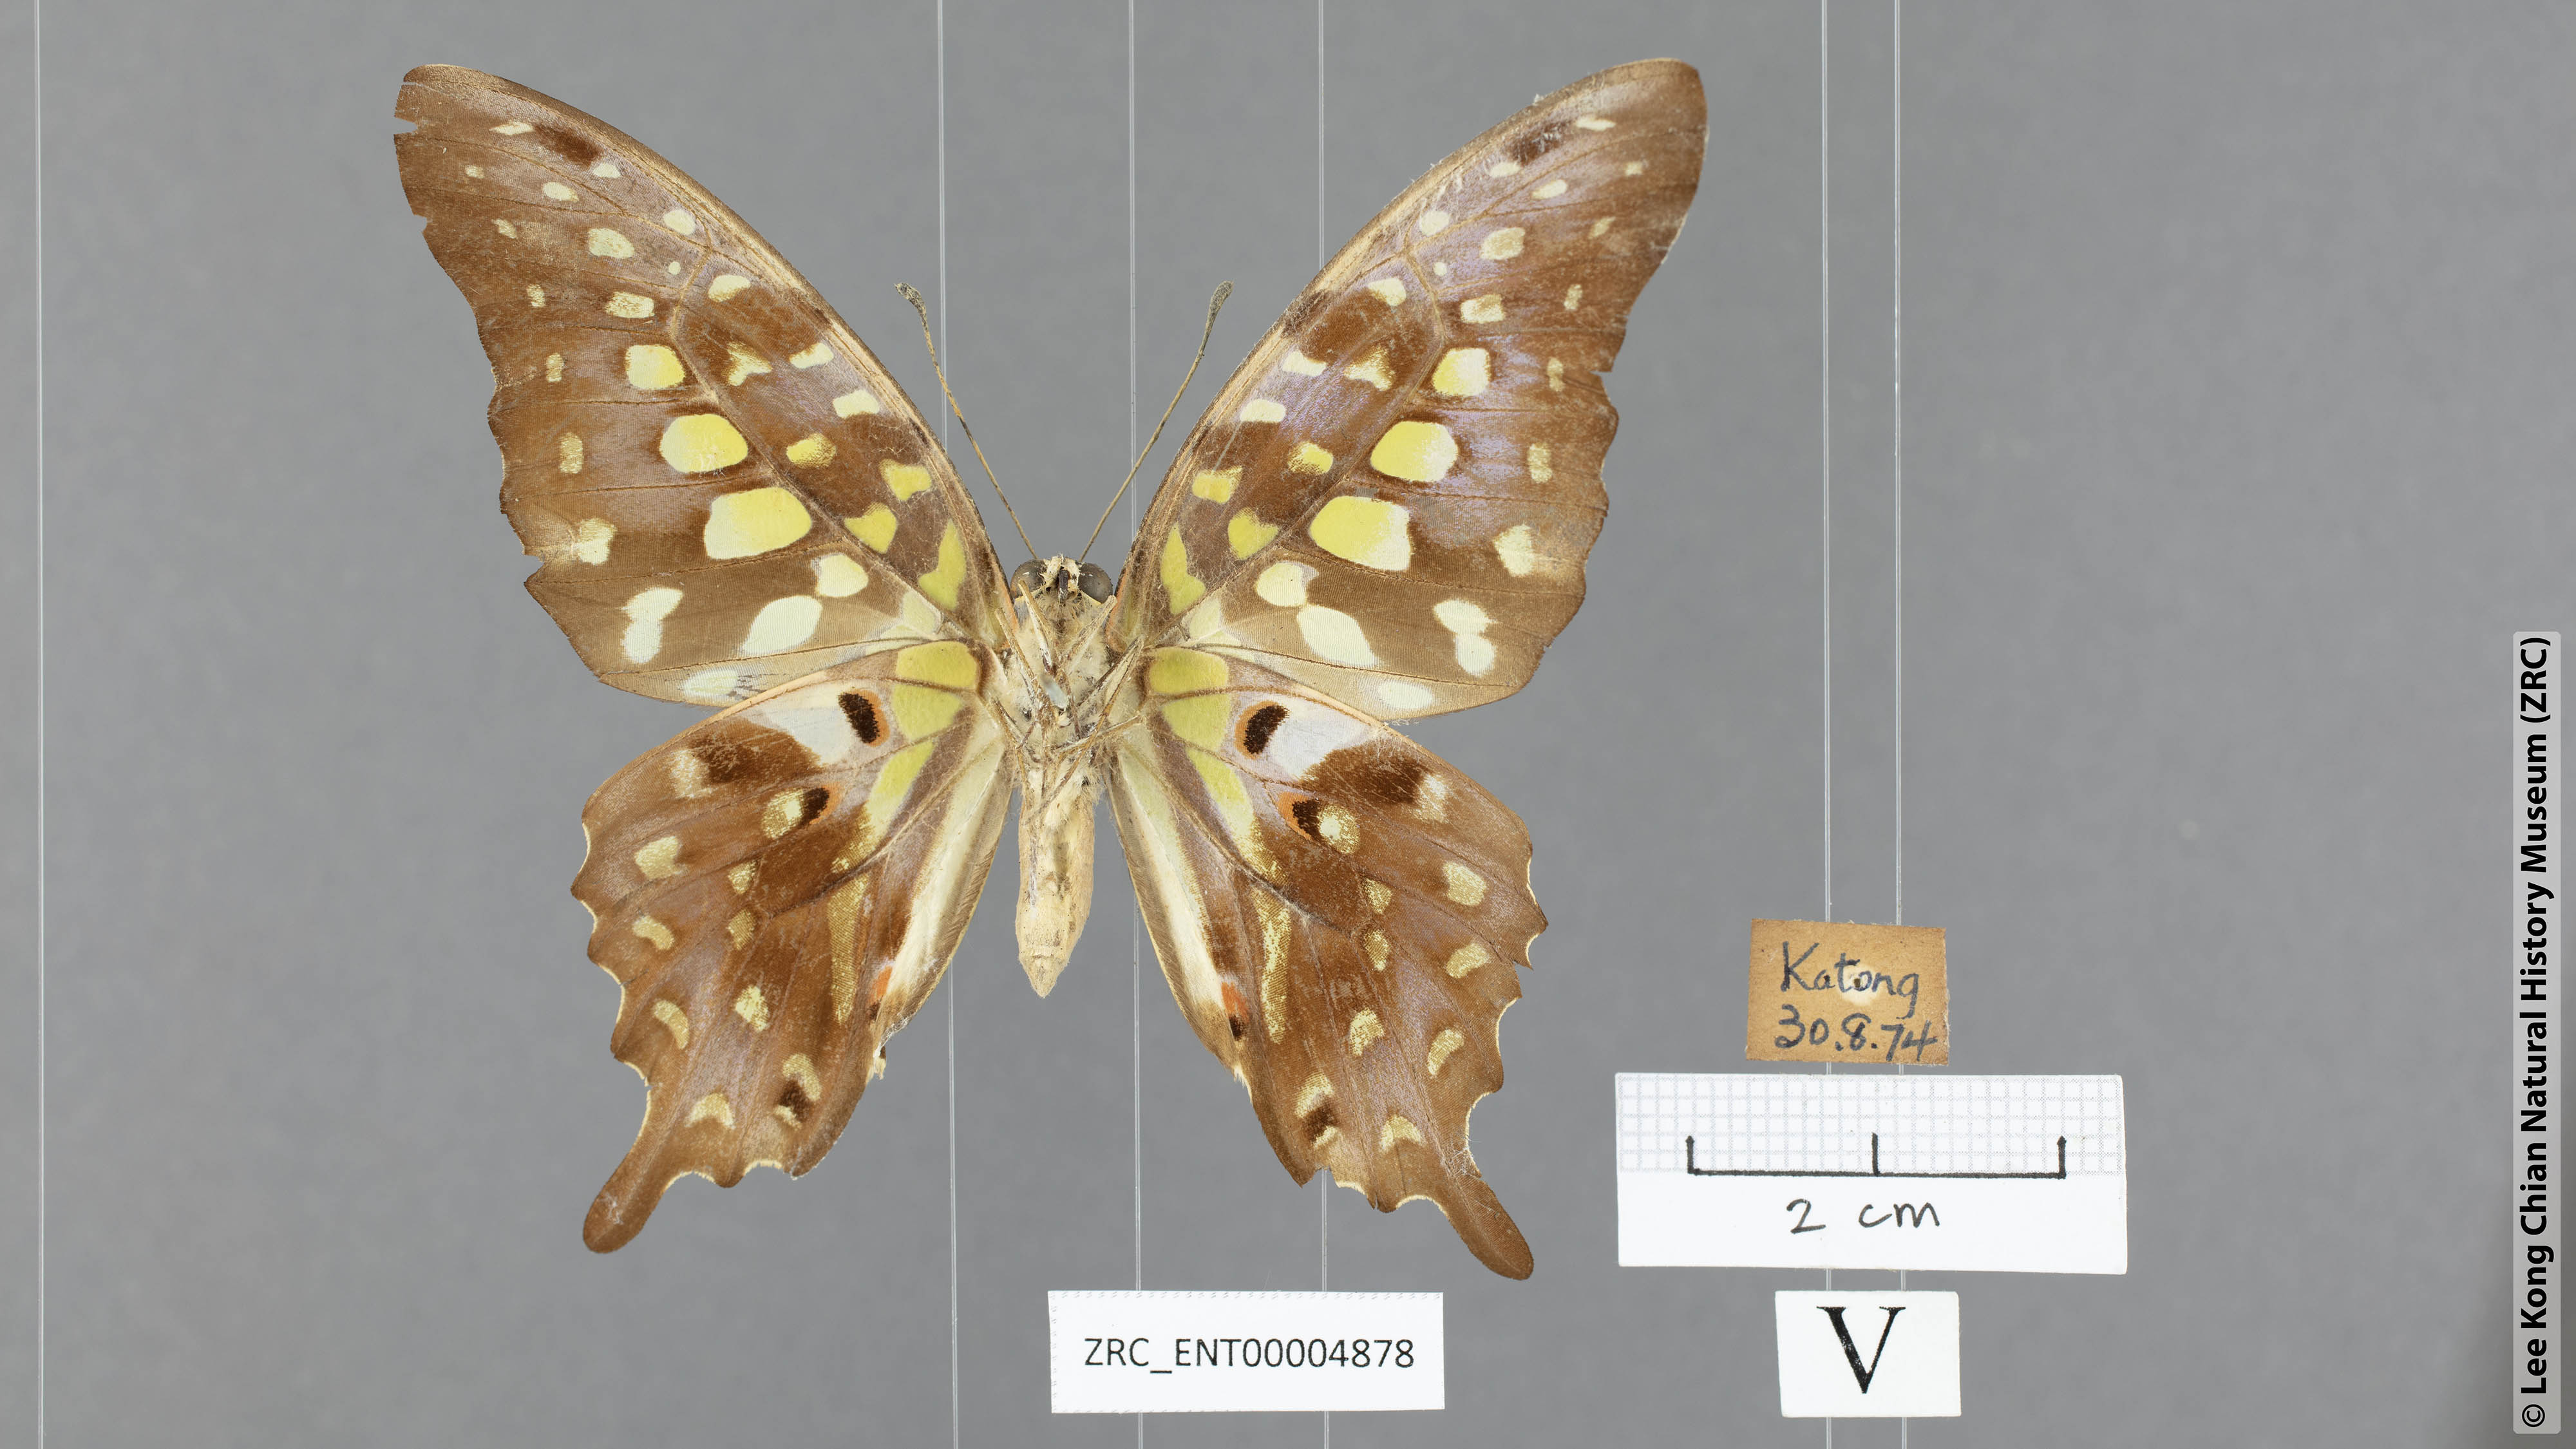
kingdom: Animalia
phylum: Arthropoda
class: Insecta
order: Lepidoptera
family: Papilionidae
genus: Graphium
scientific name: Graphium agamemnon
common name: Tailed jay
